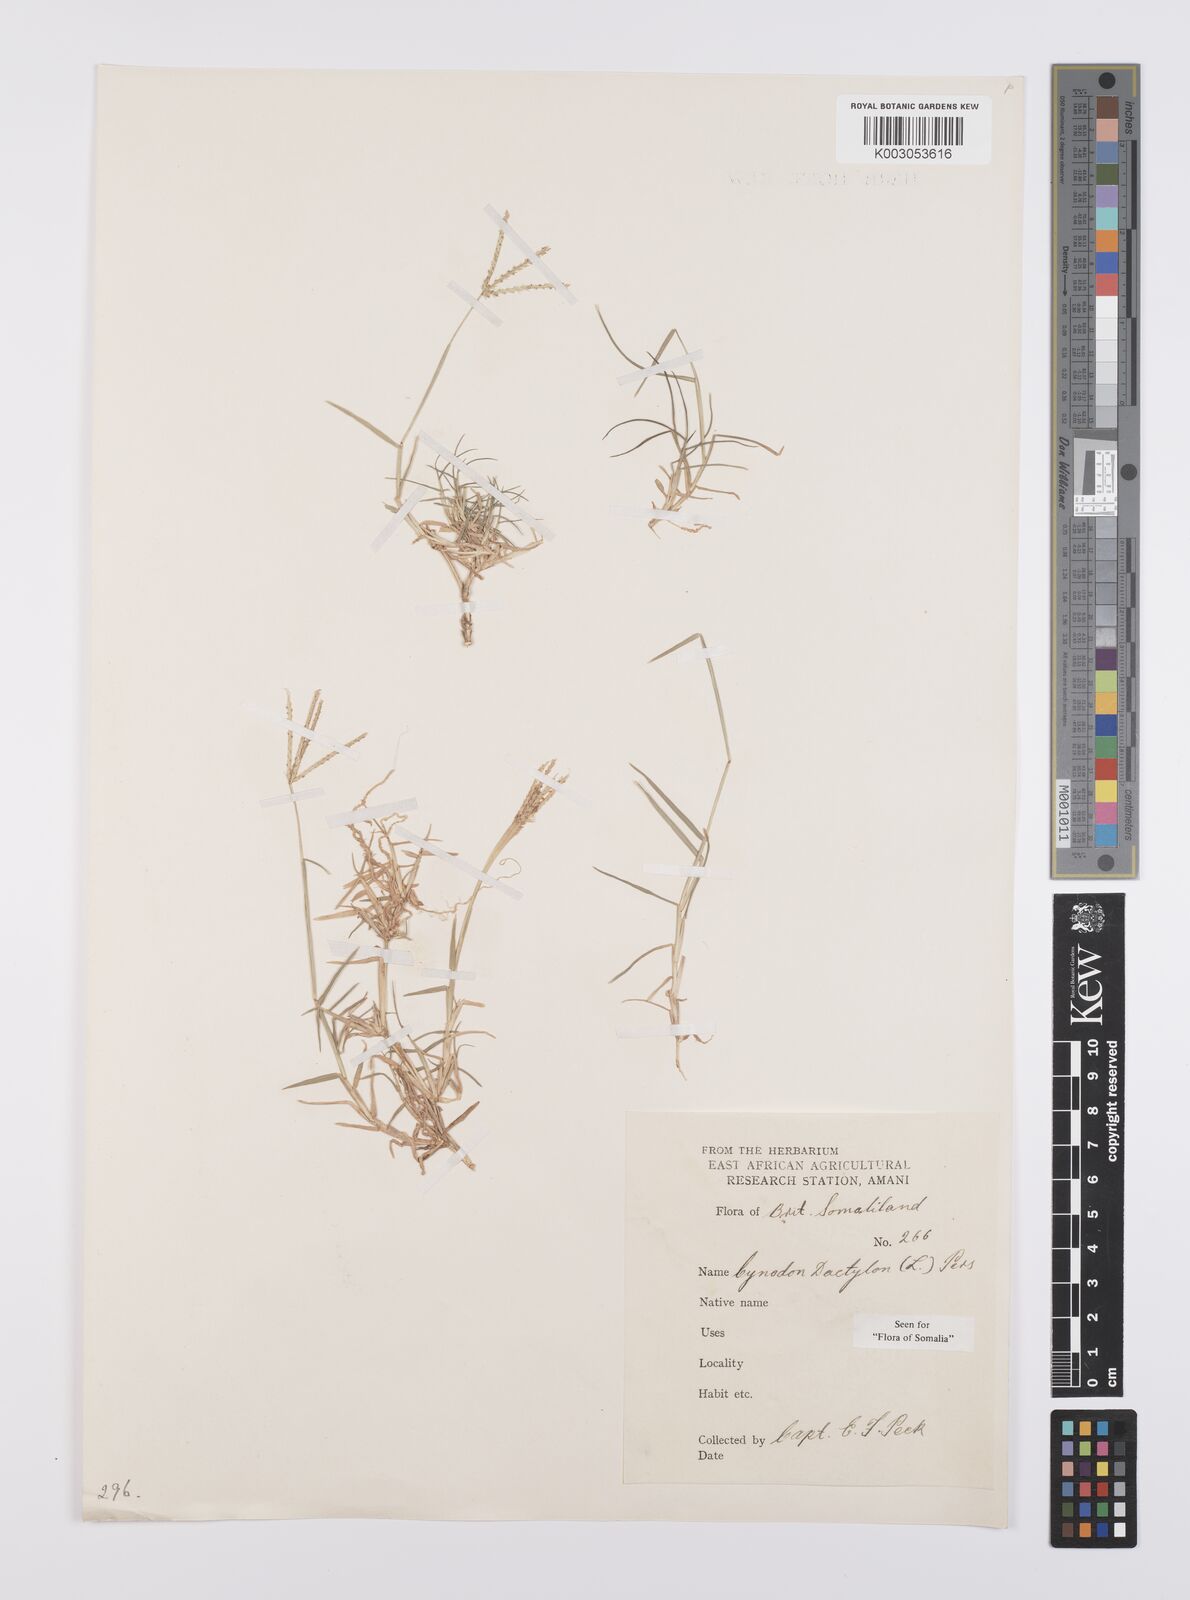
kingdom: Plantae
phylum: Tracheophyta
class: Liliopsida
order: Poales
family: Poaceae
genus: Cynodon
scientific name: Cynodon dactylon
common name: Bermuda grass
